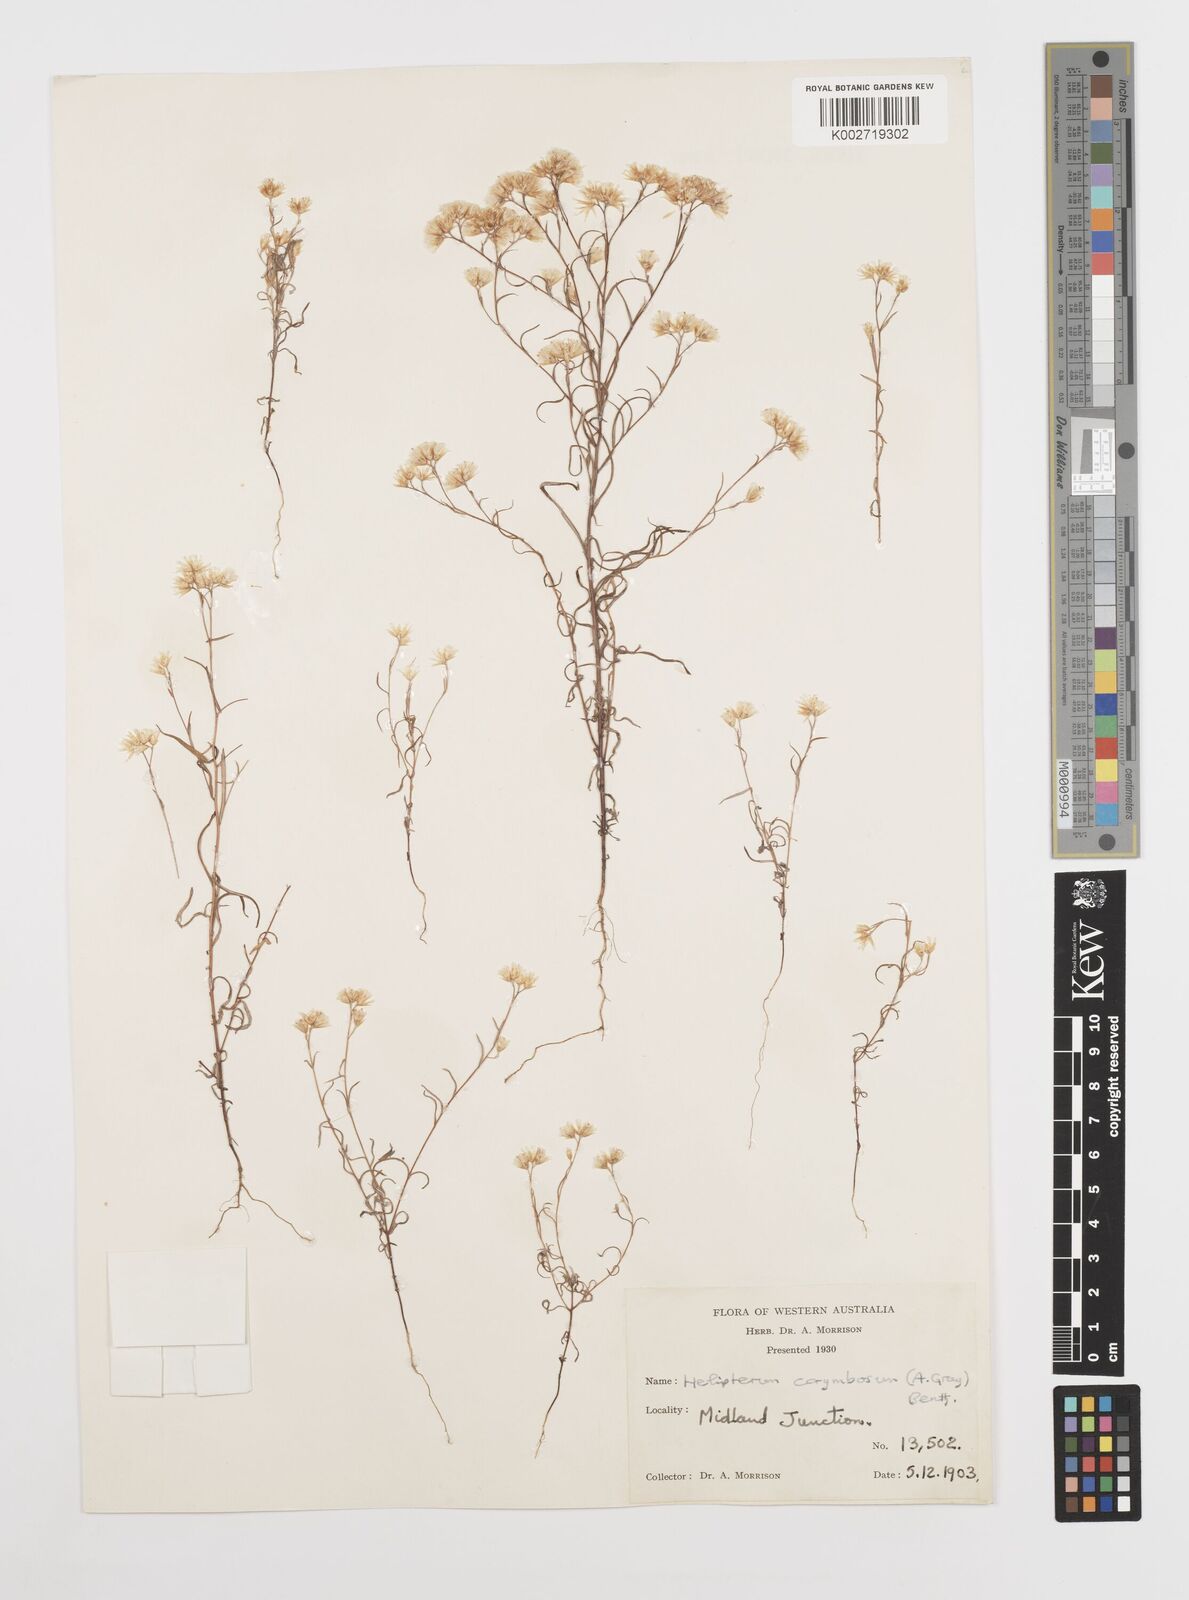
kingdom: Plantae
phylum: Tracheophyta
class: Magnoliopsida
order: Asterales
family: Asteraceae
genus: Rhodanthe
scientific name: Rhodanthe corymbosa
